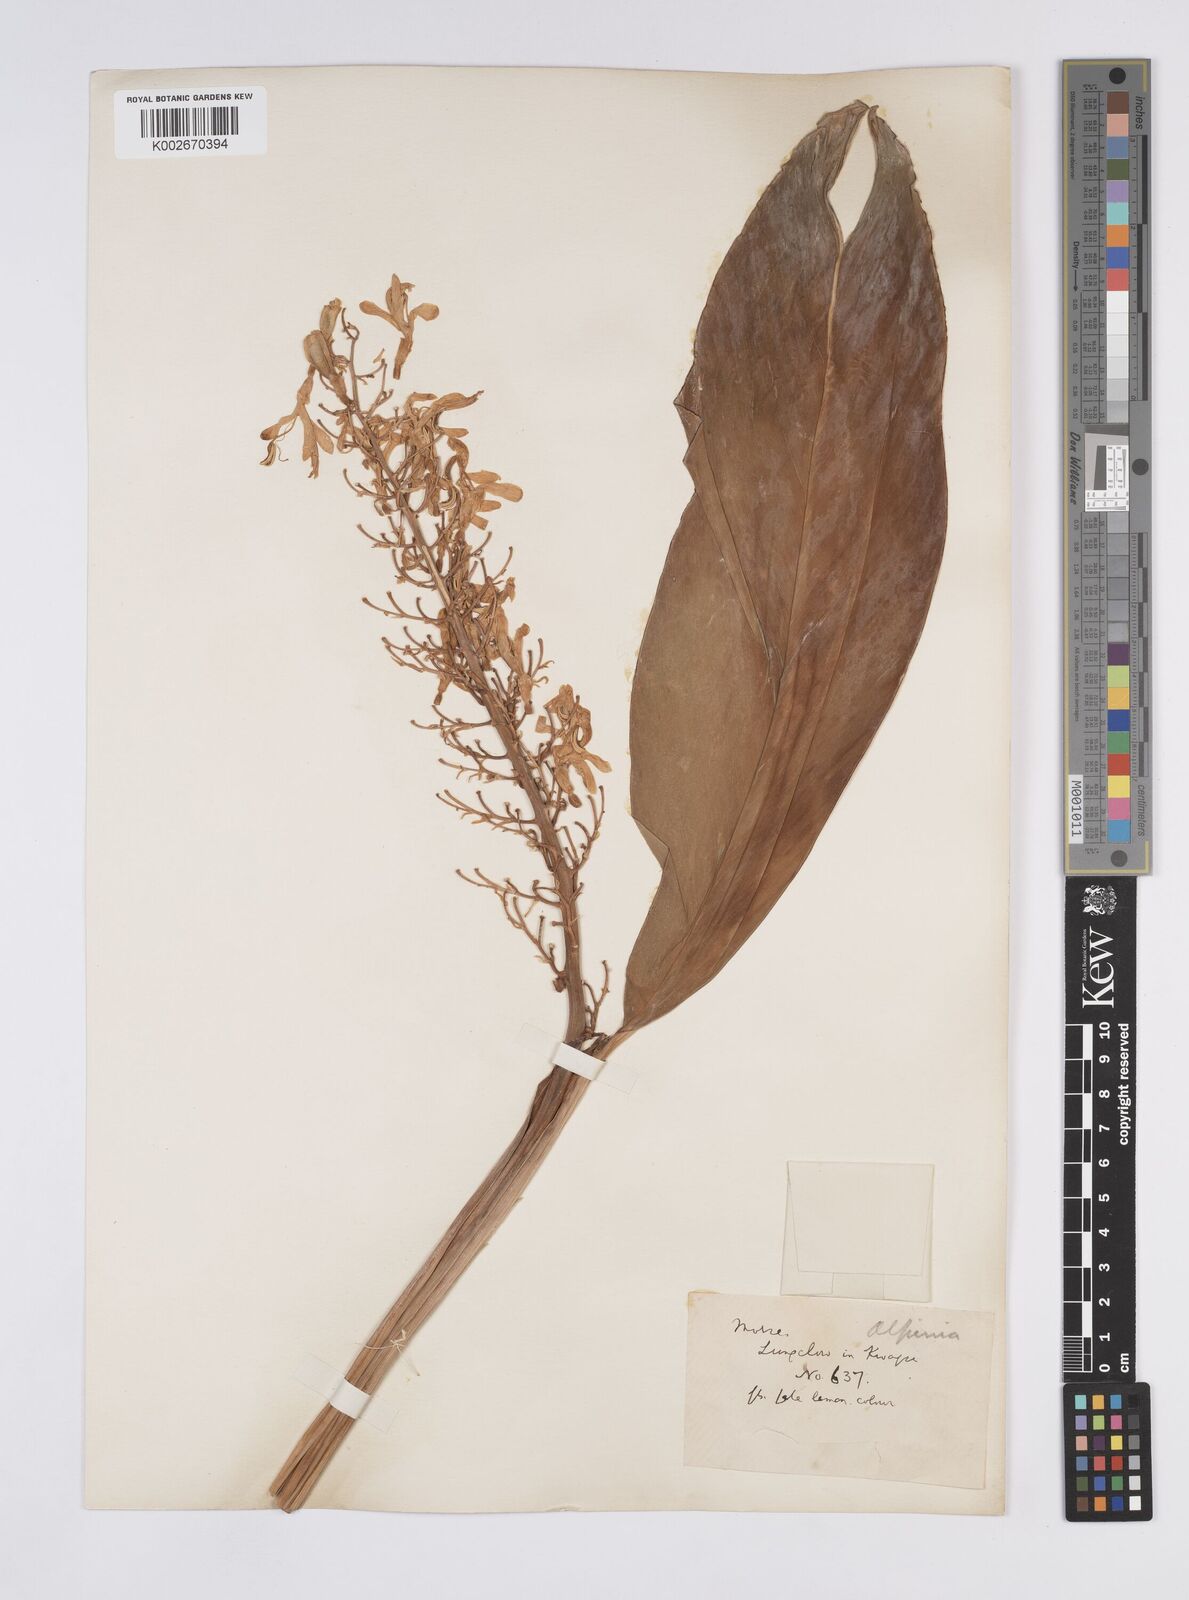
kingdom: Plantae
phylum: Tracheophyta
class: Liliopsida
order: Zingiberales
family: Zingiberaceae
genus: Alpinia
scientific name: Alpinia galanga
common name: Siamese-ginger
